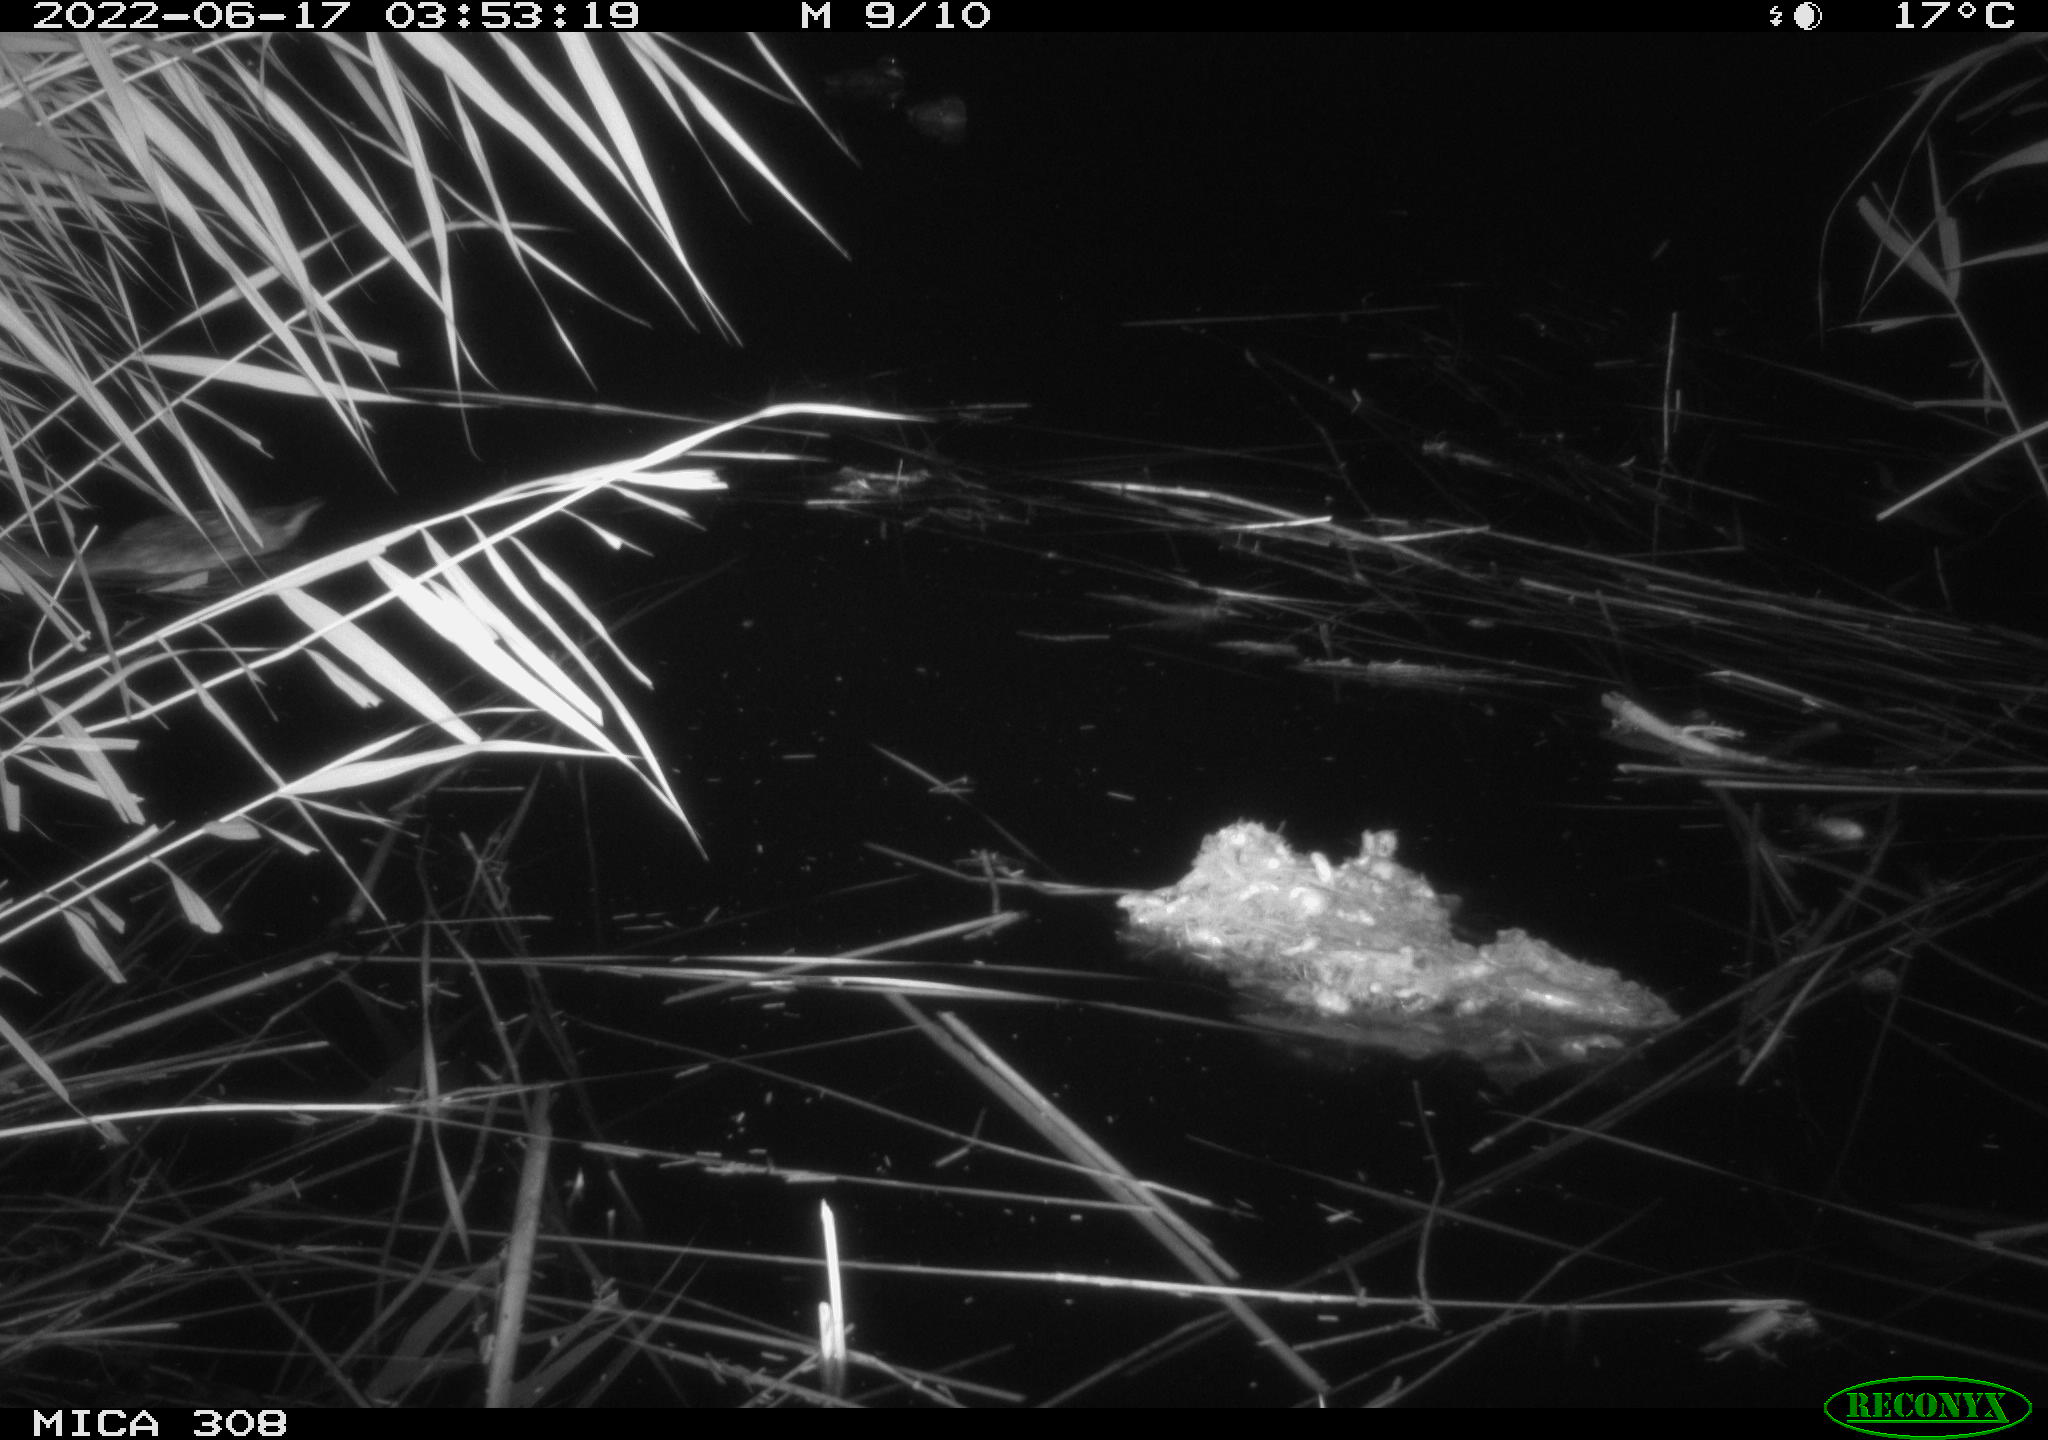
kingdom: Animalia
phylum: Chordata
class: Aves
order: Anseriformes
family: Anatidae
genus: Anas
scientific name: Anas platyrhynchos
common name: Mallard
